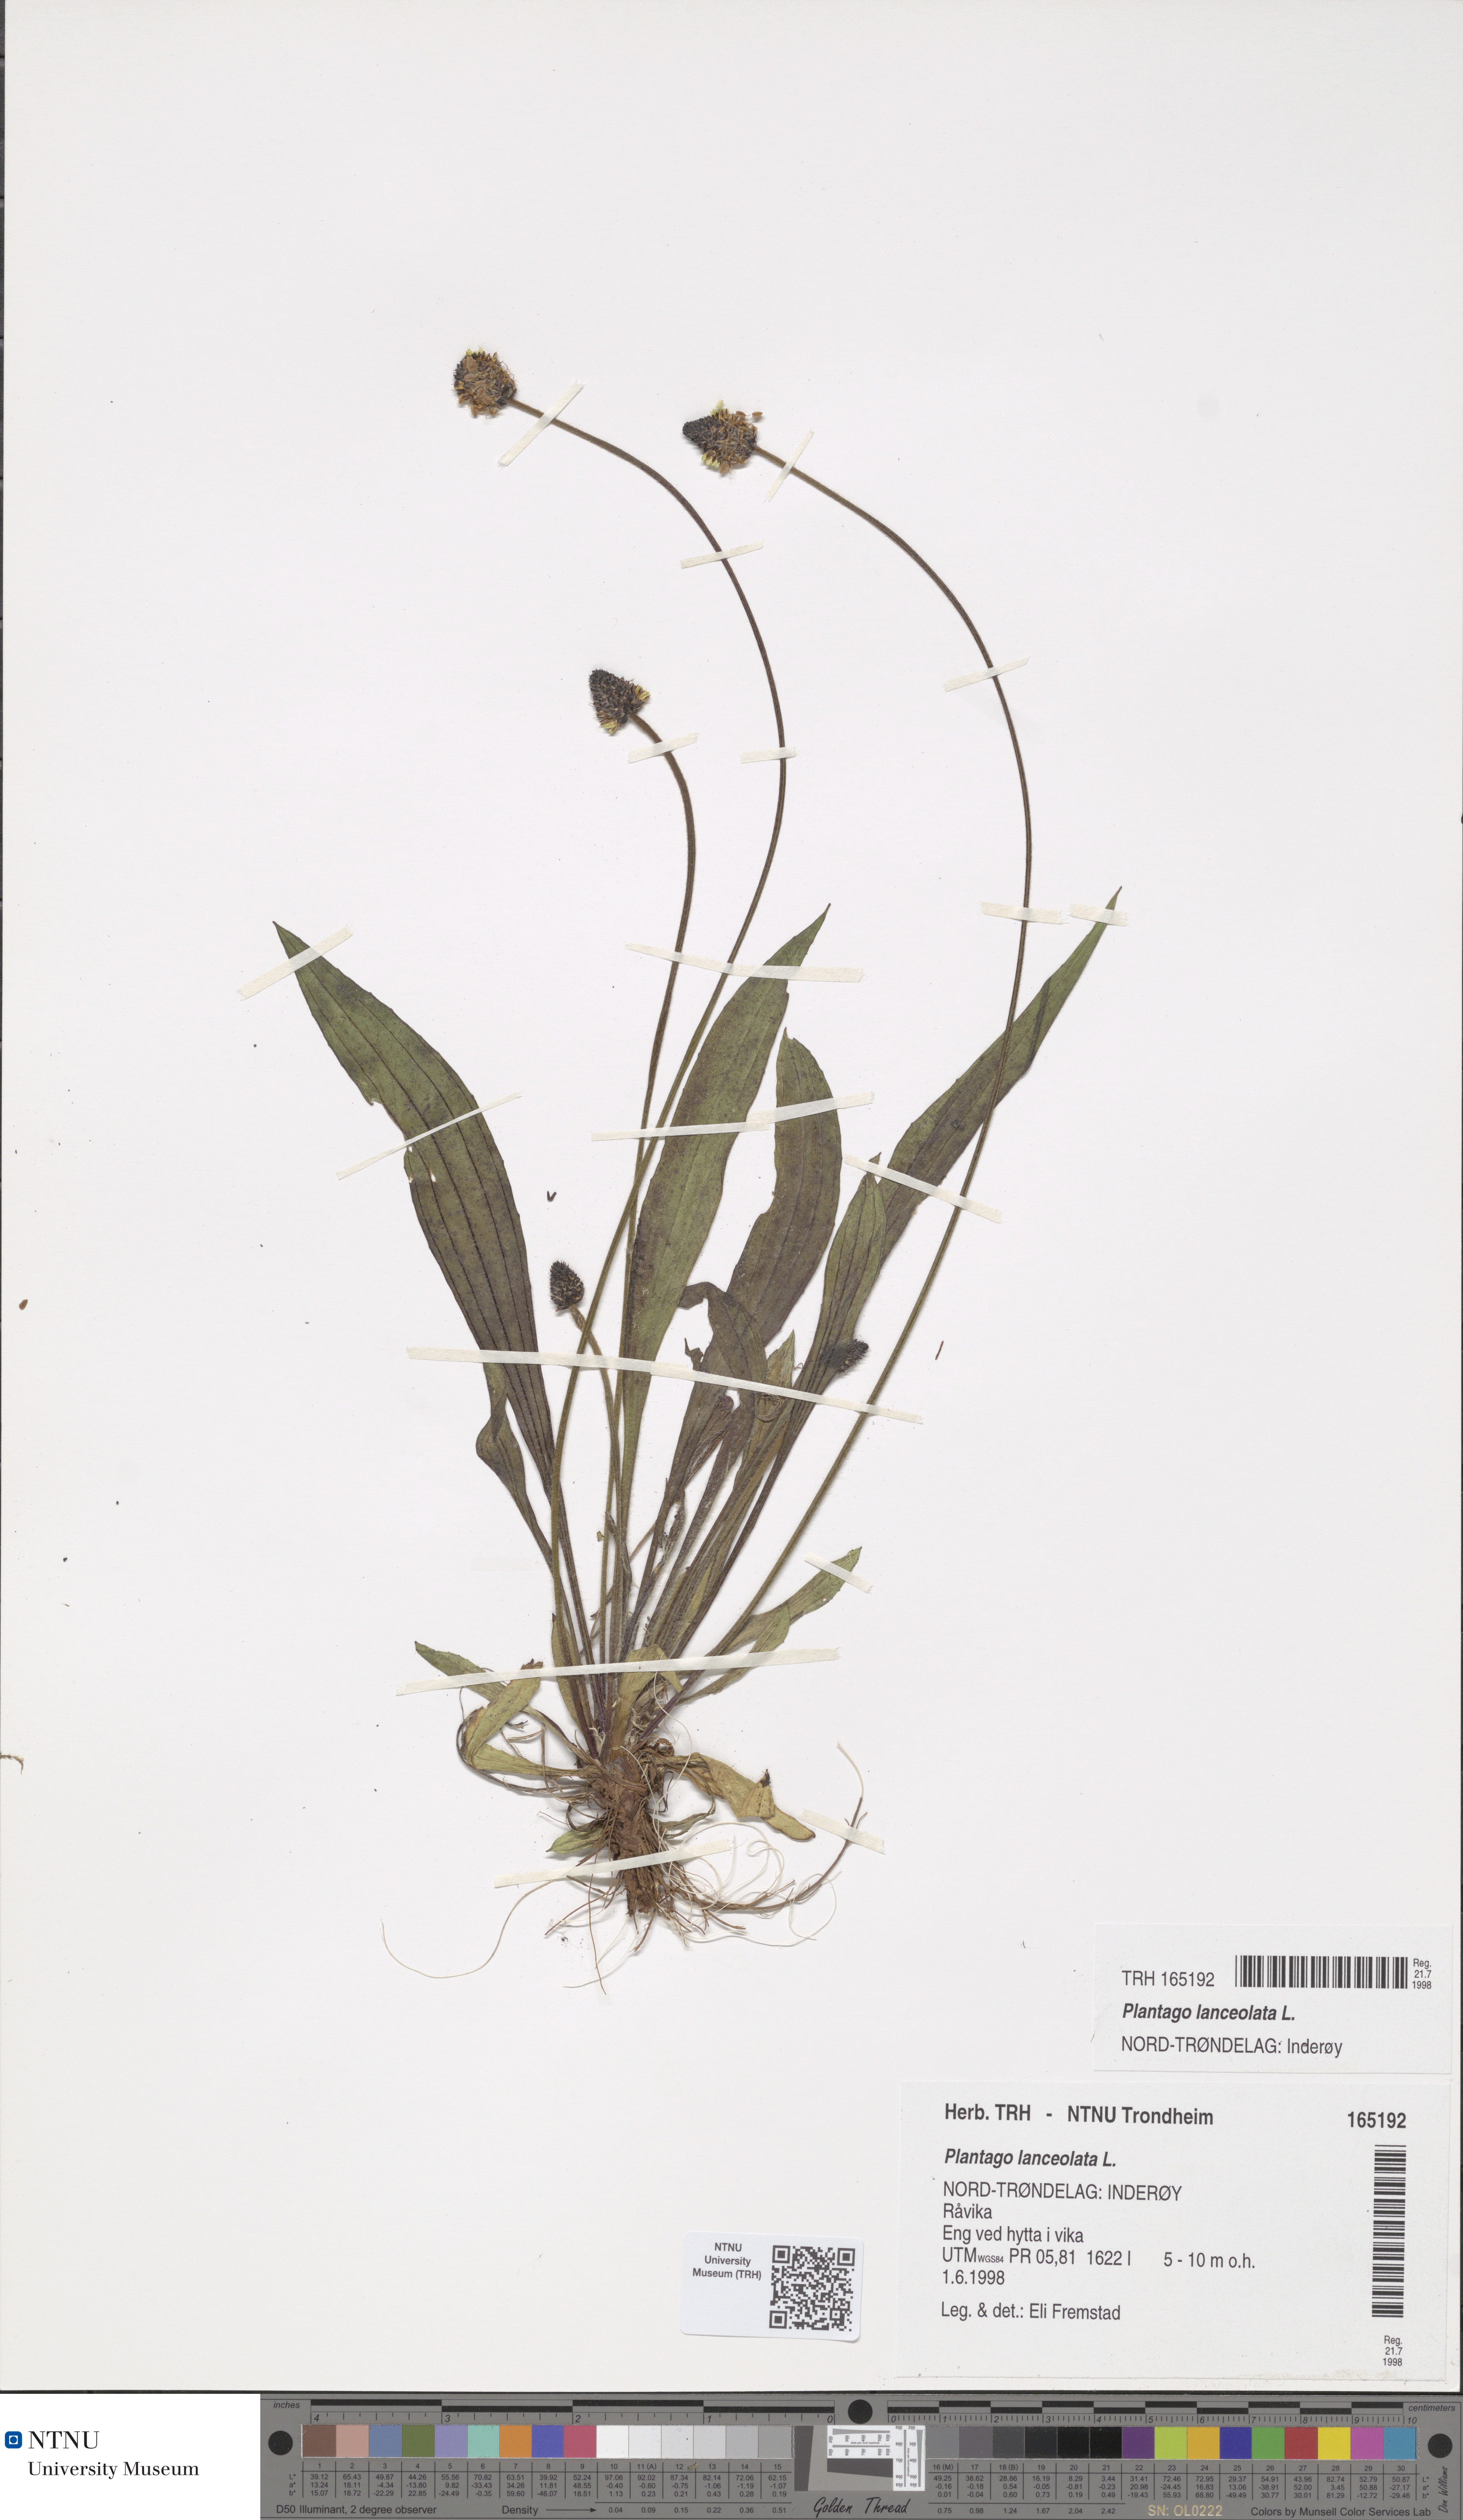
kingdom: Plantae
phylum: Tracheophyta
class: Magnoliopsida
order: Lamiales
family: Plantaginaceae
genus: Plantago
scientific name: Plantago lanceolata
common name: Ribwort plantain
